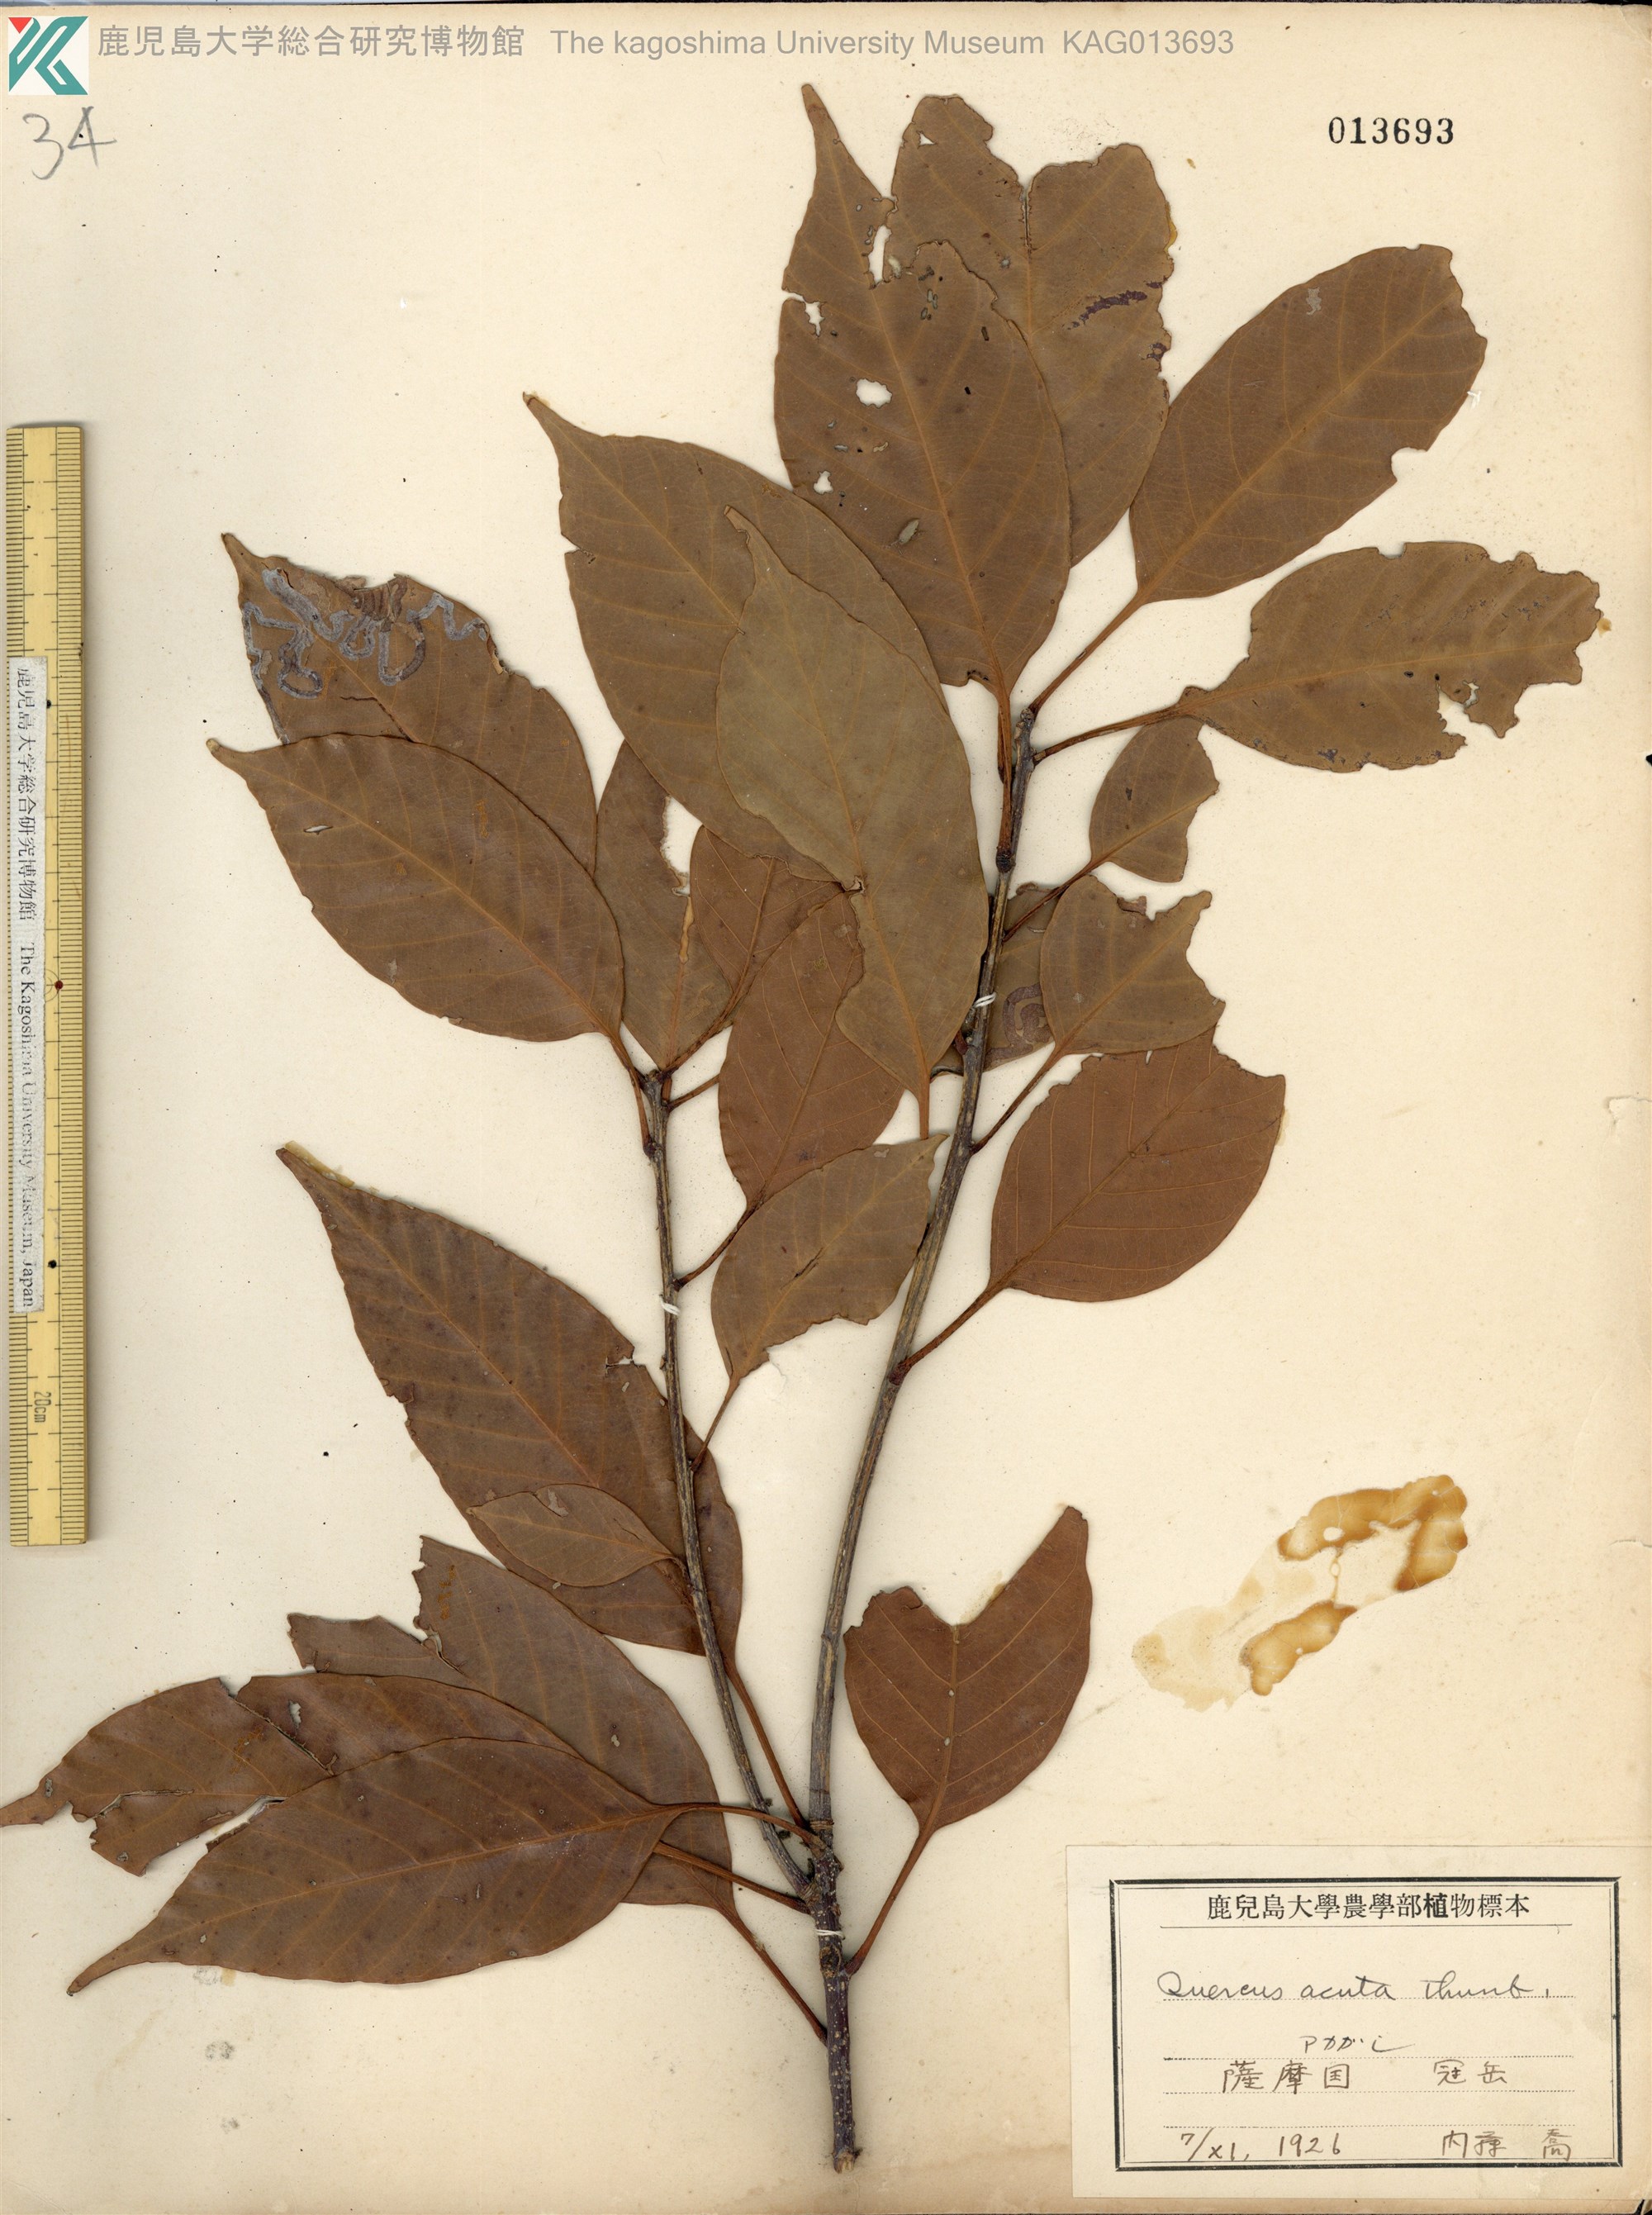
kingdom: Plantae
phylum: Tracheophyta
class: Magnoliopsida
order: Fagales
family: Fagaceae
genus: Quercus
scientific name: Quercus acuta
